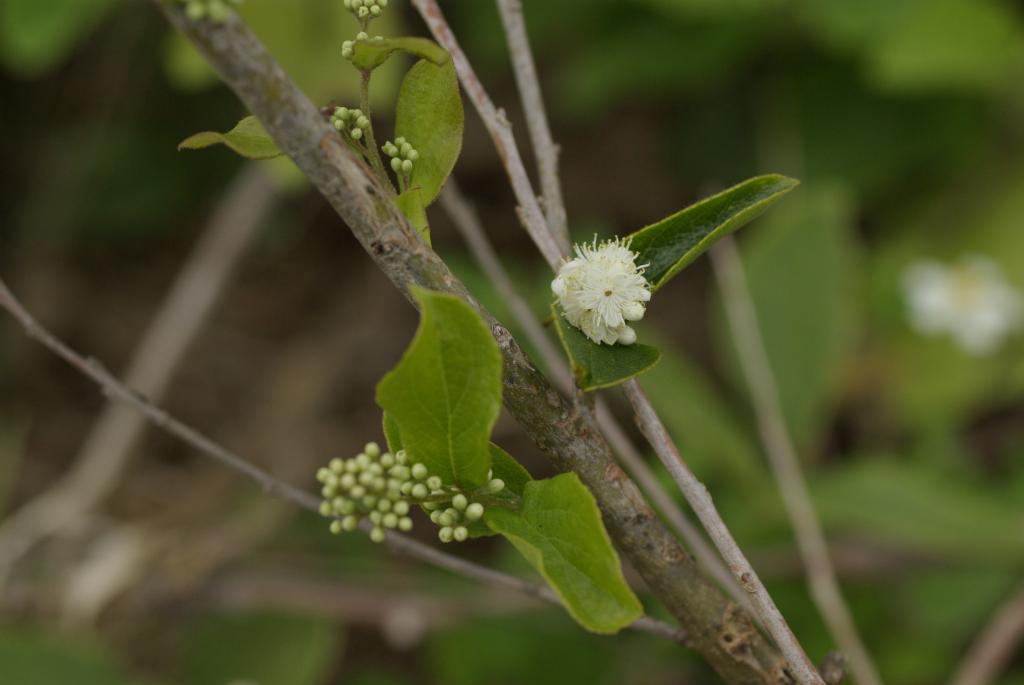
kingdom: Plantae
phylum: Tracheophyta
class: Magnoliopsida
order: Ericales
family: Symplocaceae
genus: Symplocos
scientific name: Symplocos paniculata
